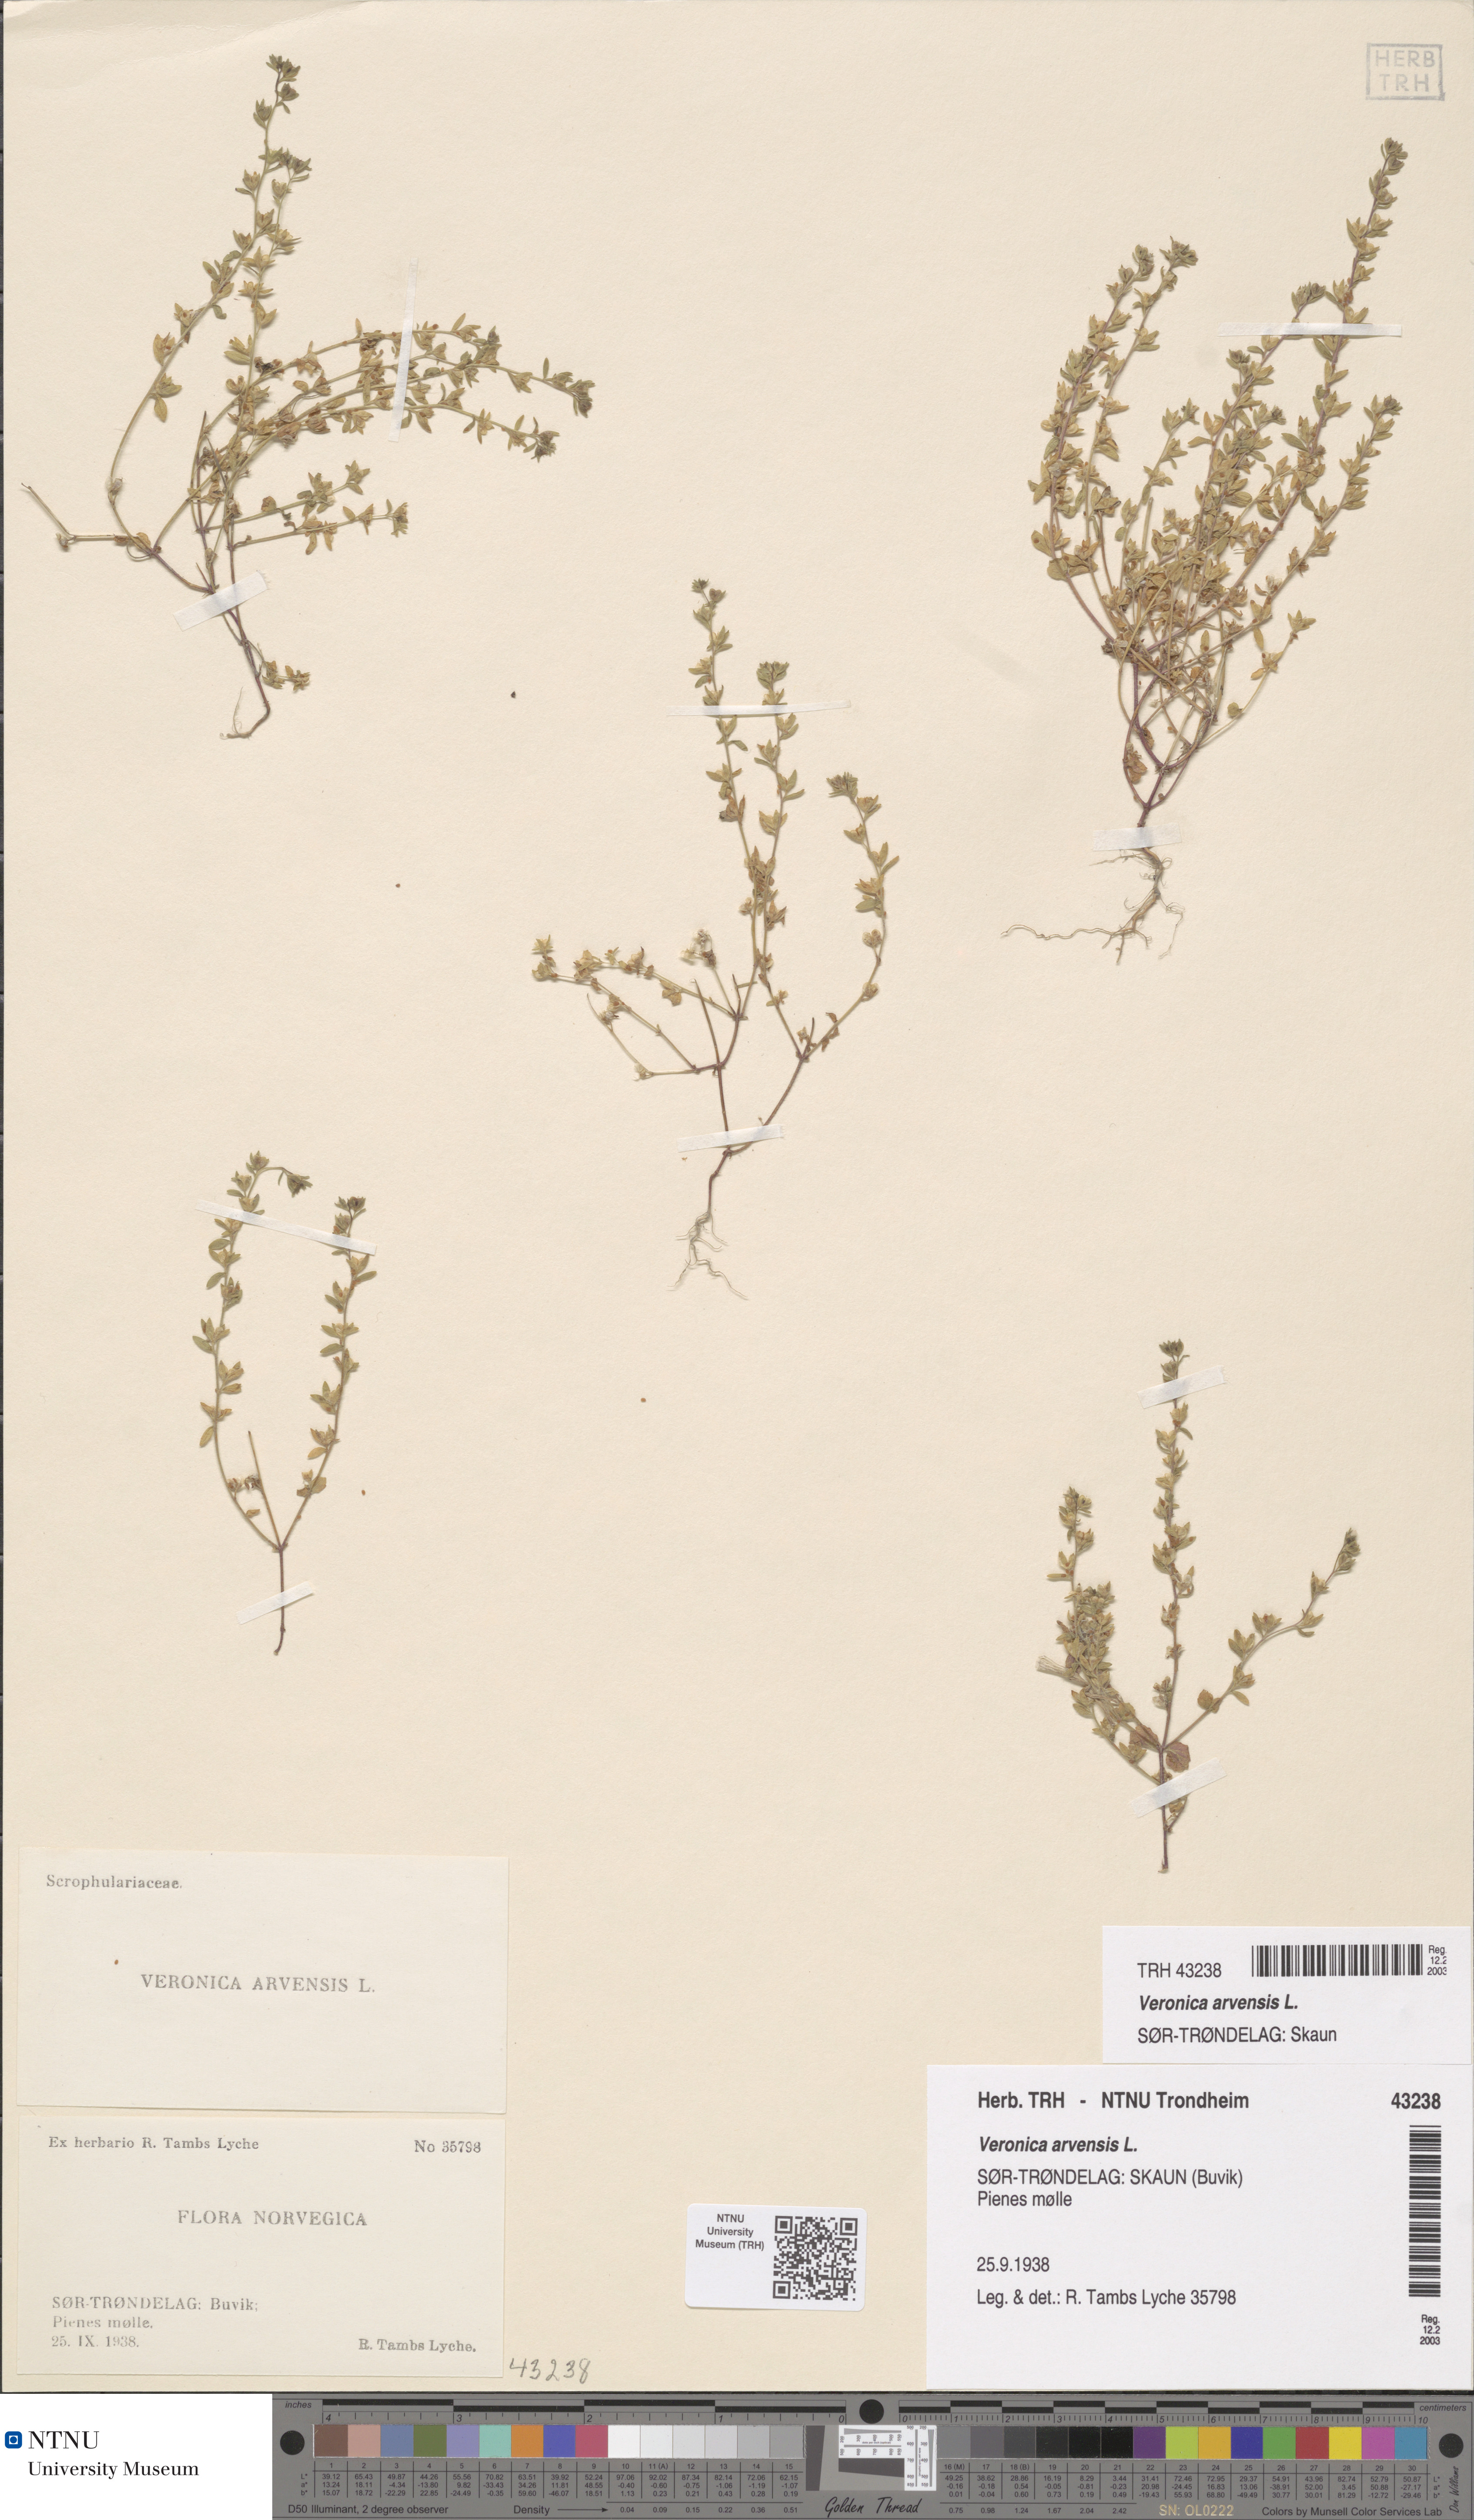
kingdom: Plantae
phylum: Tracheophyta
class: Magnoliopsida
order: Lamiales
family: Plantaginaceae
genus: Veronica
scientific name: Veronica arvensis
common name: Corn speedwell
